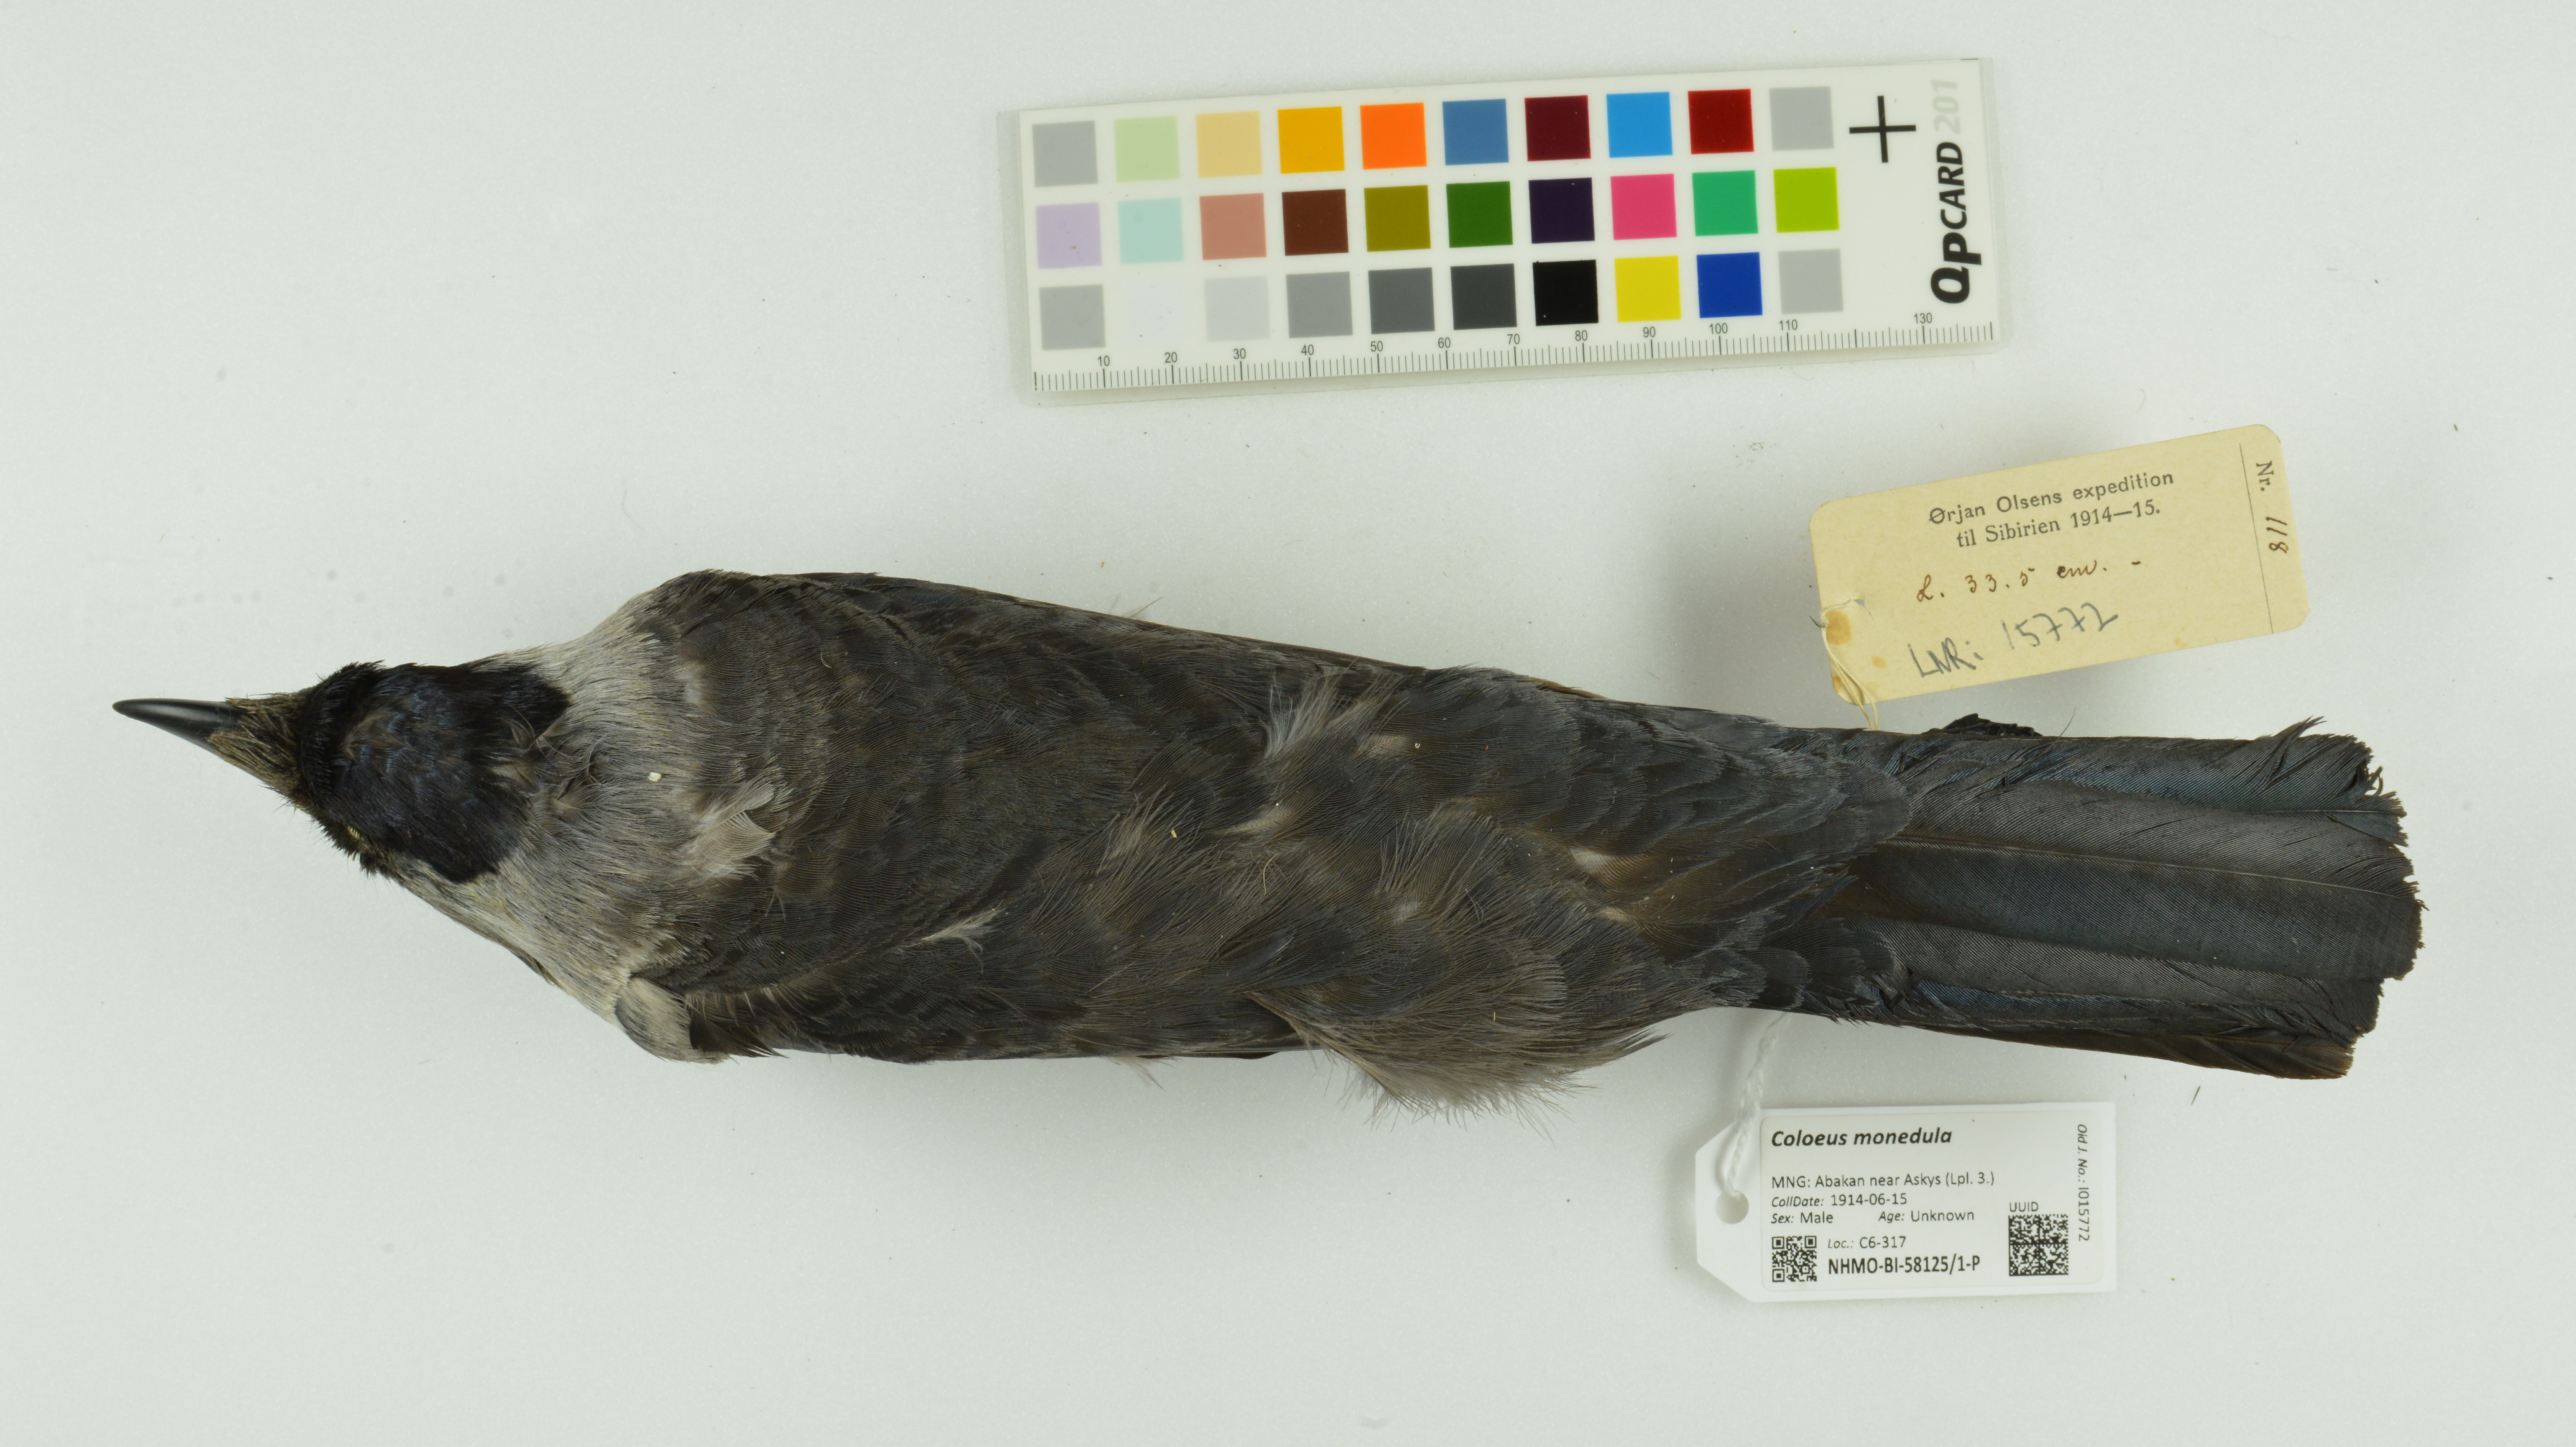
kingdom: Animalia
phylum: Chordata
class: Aves
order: Passeriformes
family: Corvidae
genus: Coloeus
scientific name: Coloeus monedula
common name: Western jackdaw
